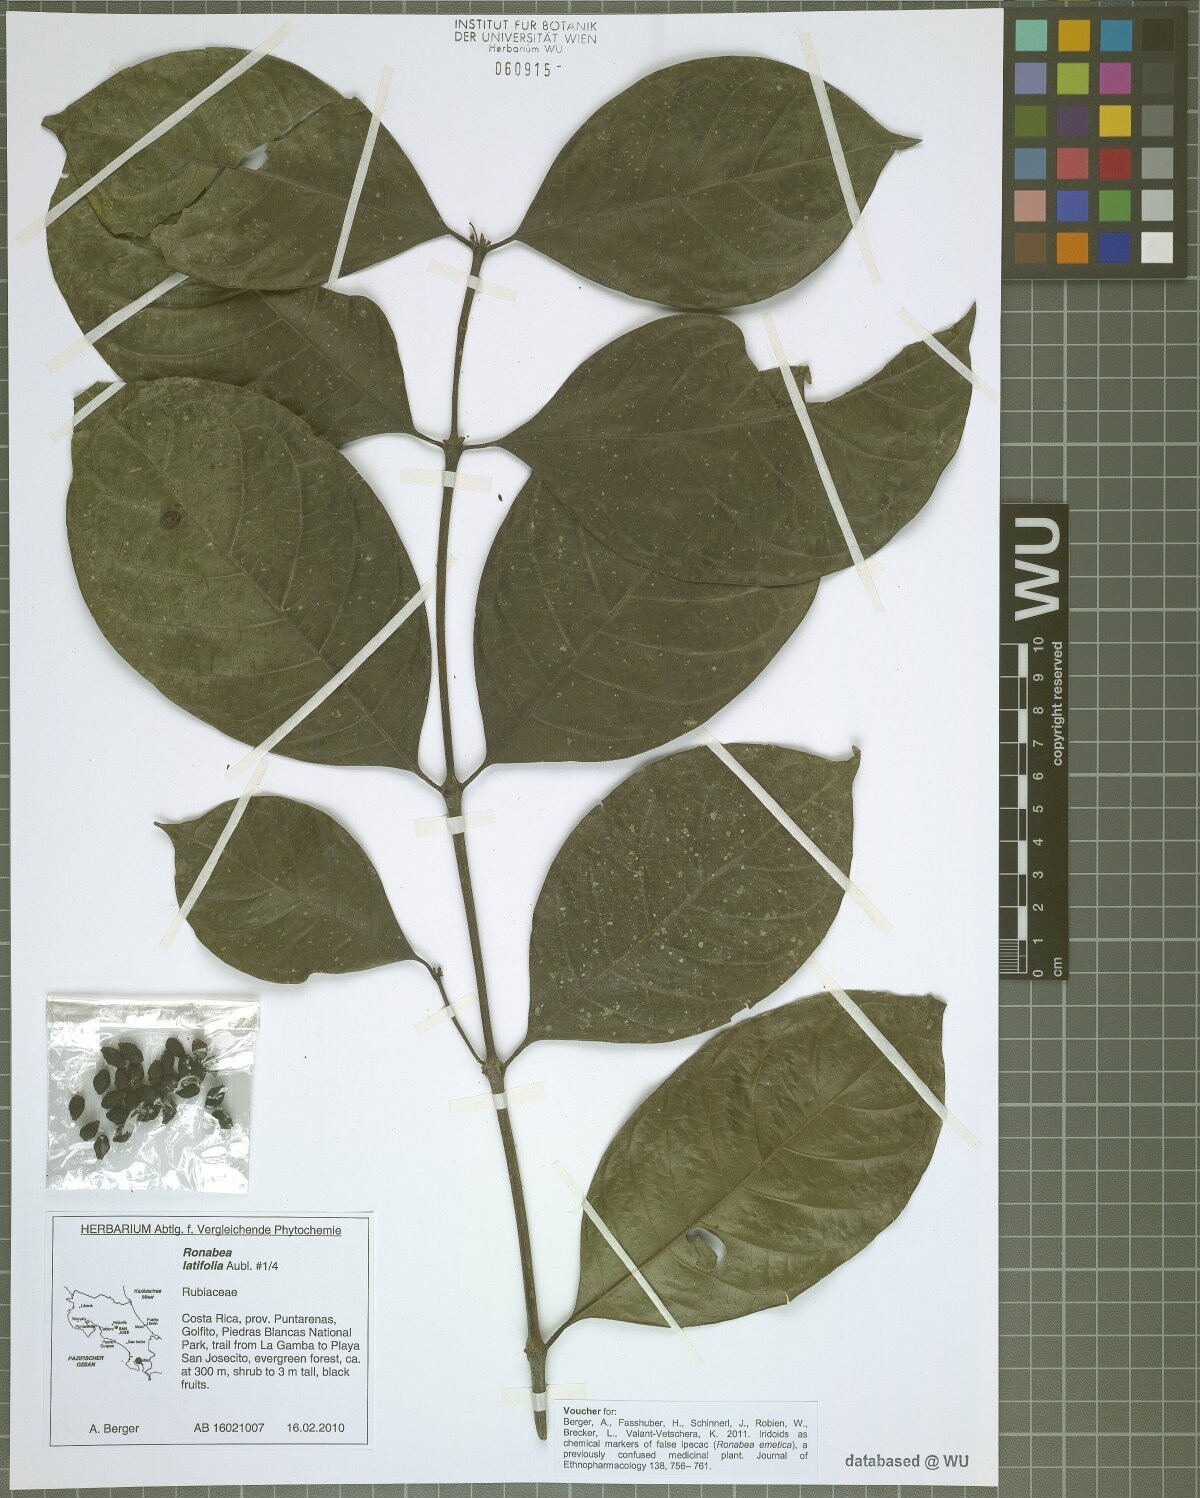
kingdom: Plantae
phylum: Tracheophyta
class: Magnoliopsida
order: Gentianales
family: Rubiaceae
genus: Ronabea
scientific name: Ronabea latifolia
